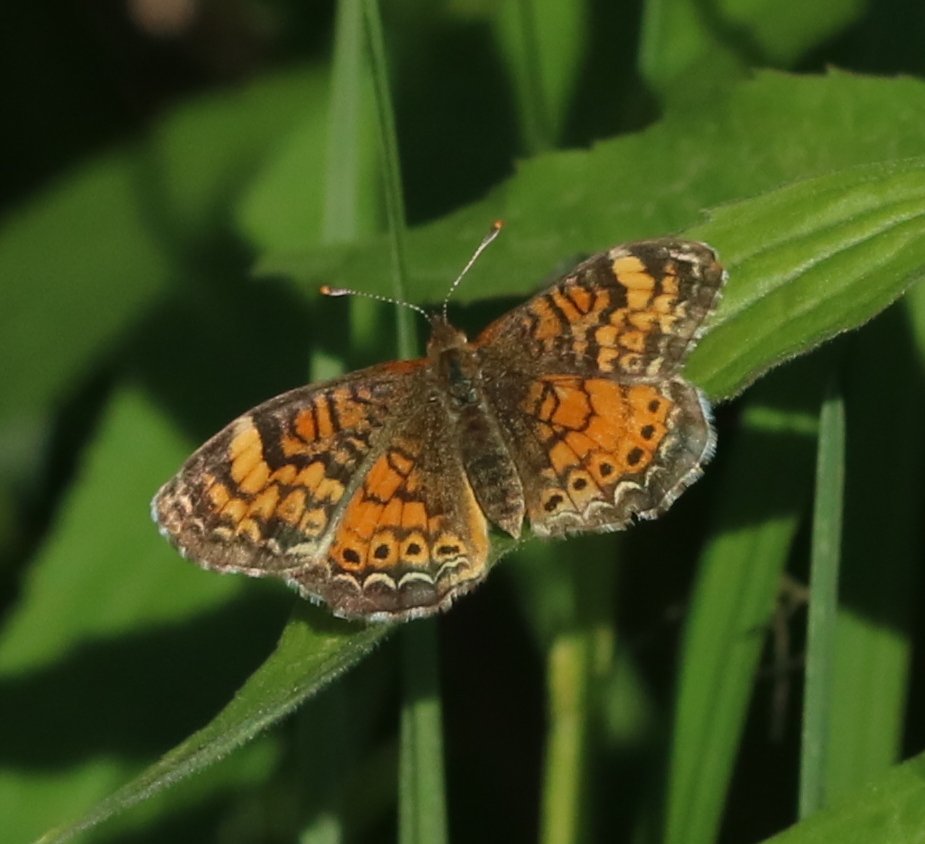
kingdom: Animalia
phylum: Arthropoda
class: Insecta
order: Lepidoptera
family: Nymphalidae
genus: Phyciodes
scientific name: Phyciodes tharos
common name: Northern Crescent
